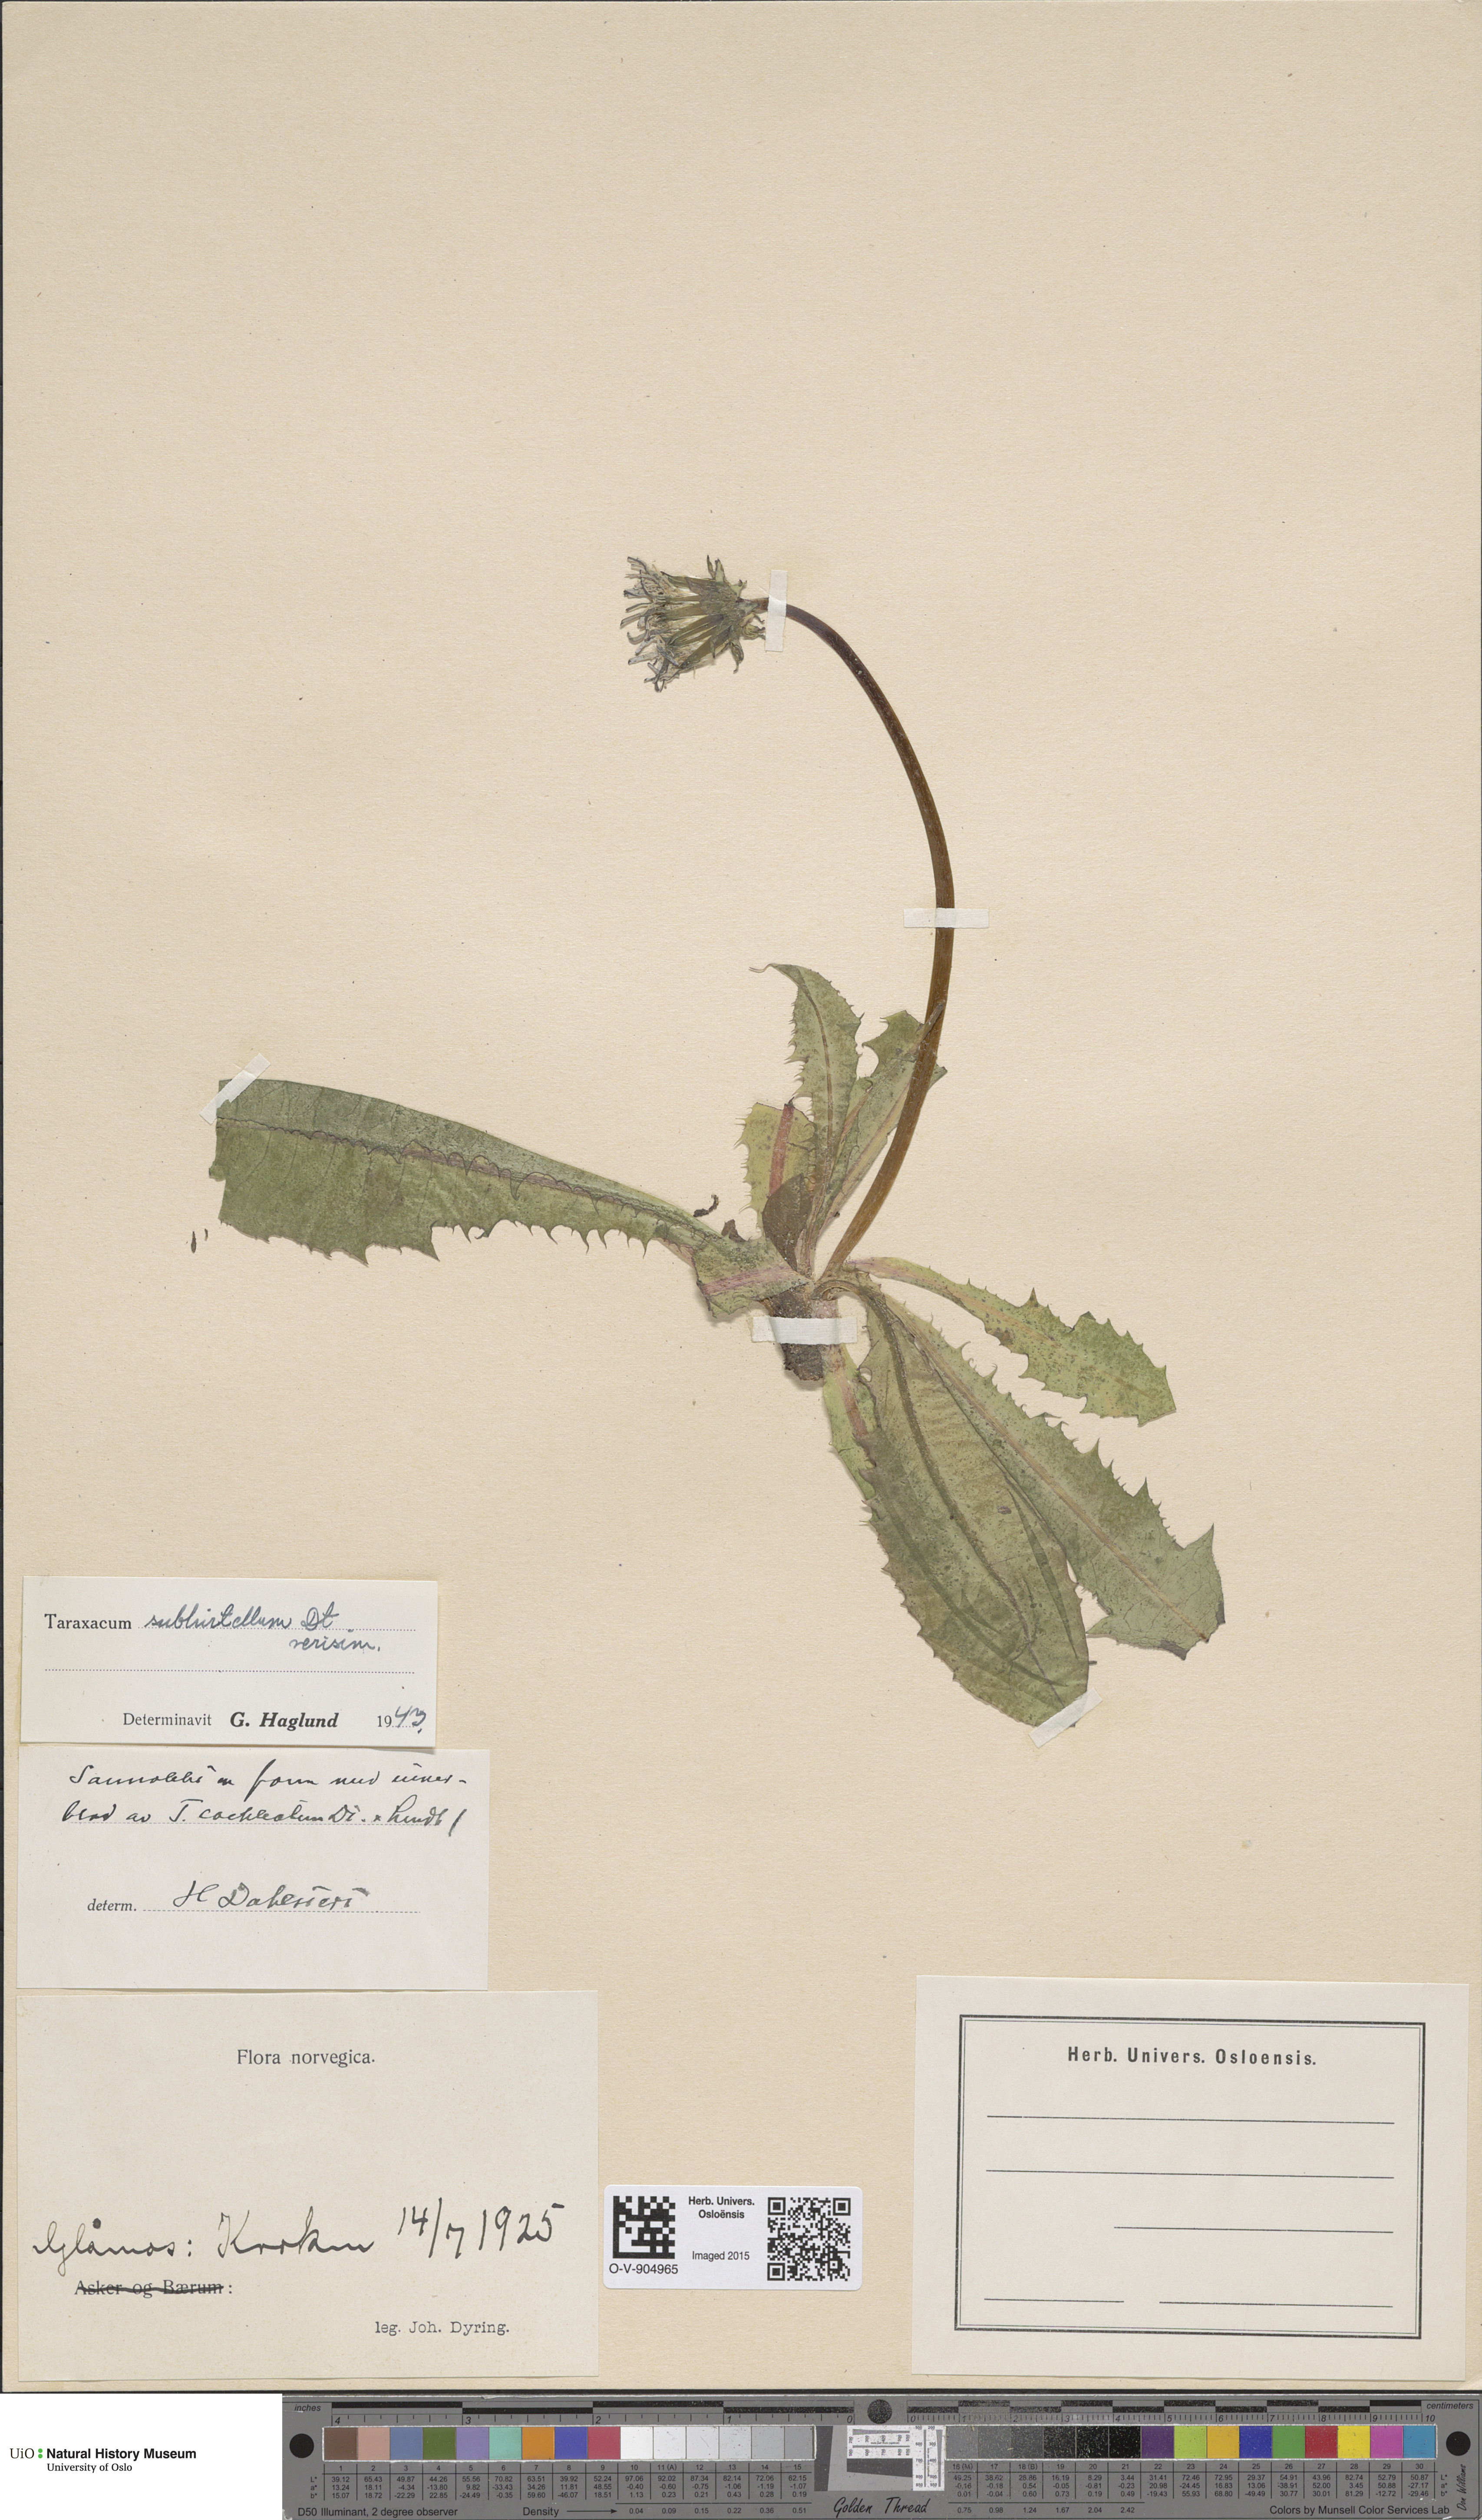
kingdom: Plantae
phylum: Tracheophyta
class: Magnoliopsida
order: Asterales
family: Asteraceae
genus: Taraxacum
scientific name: Taraxacum subhirtellum
